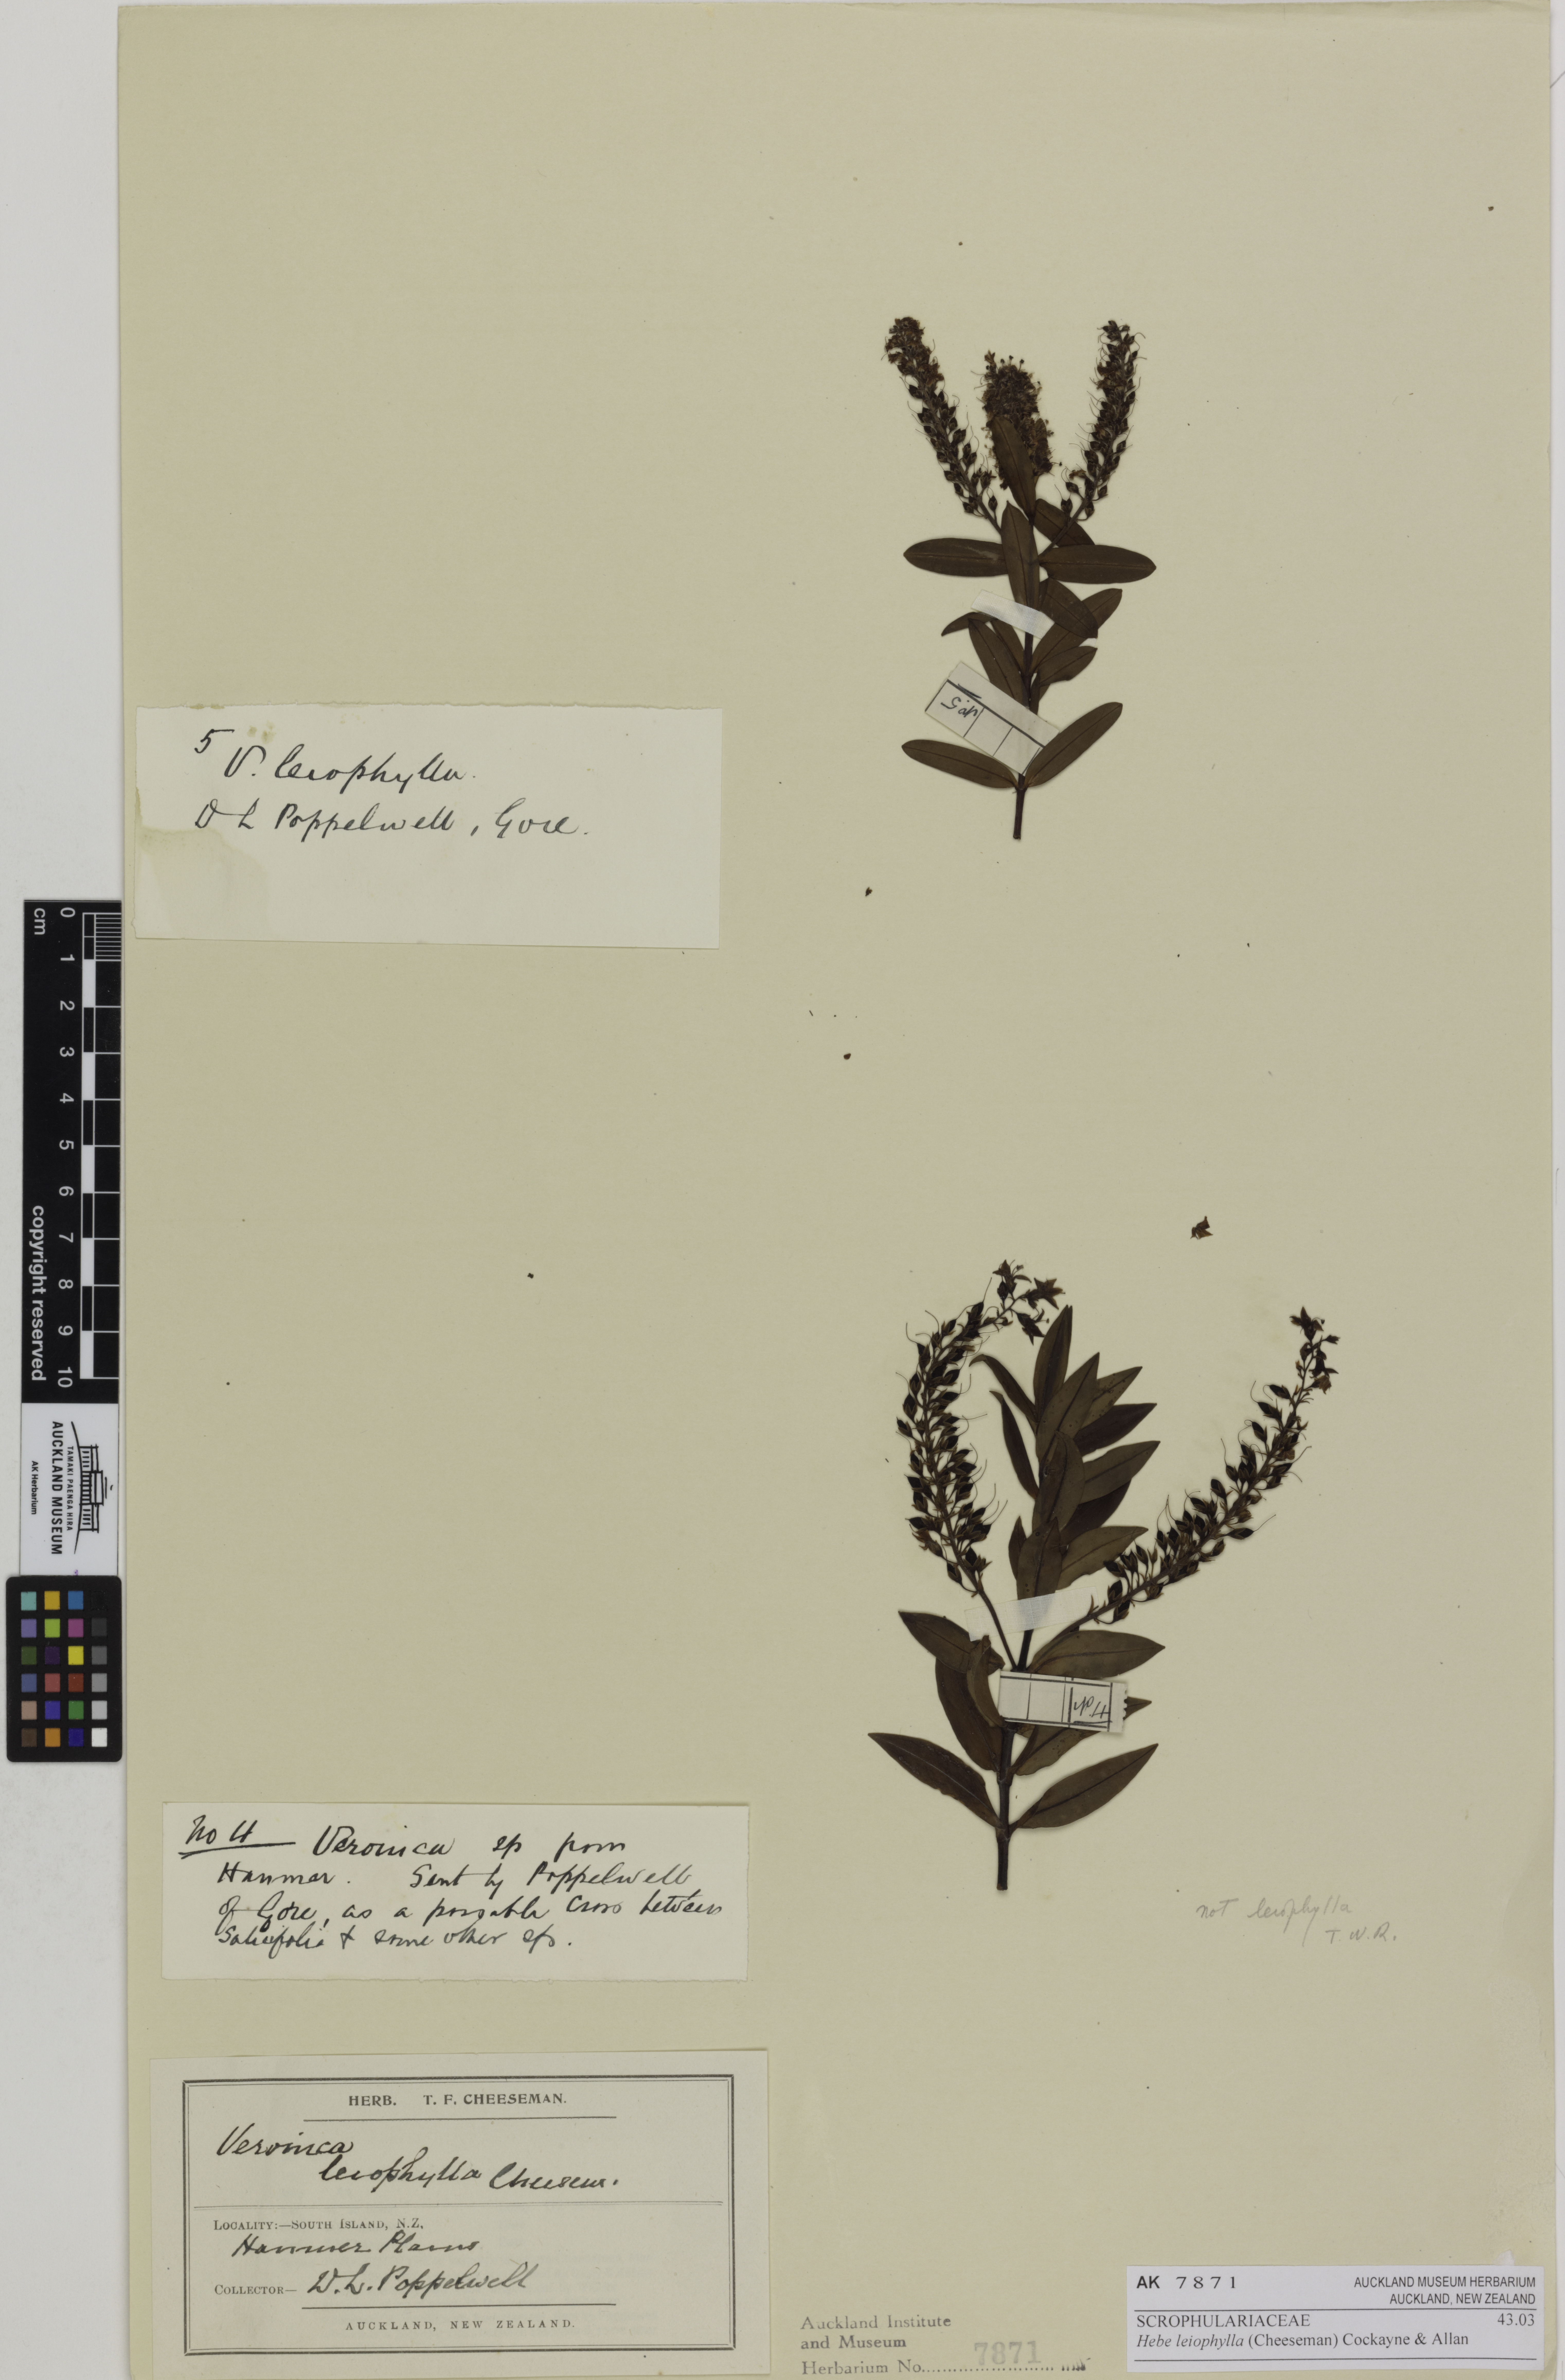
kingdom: Plantae
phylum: Tracheophyta
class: Magnoliopsida
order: Lamiales
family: Plantaginaceae
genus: Veronica
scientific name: Veronica leiophylla
